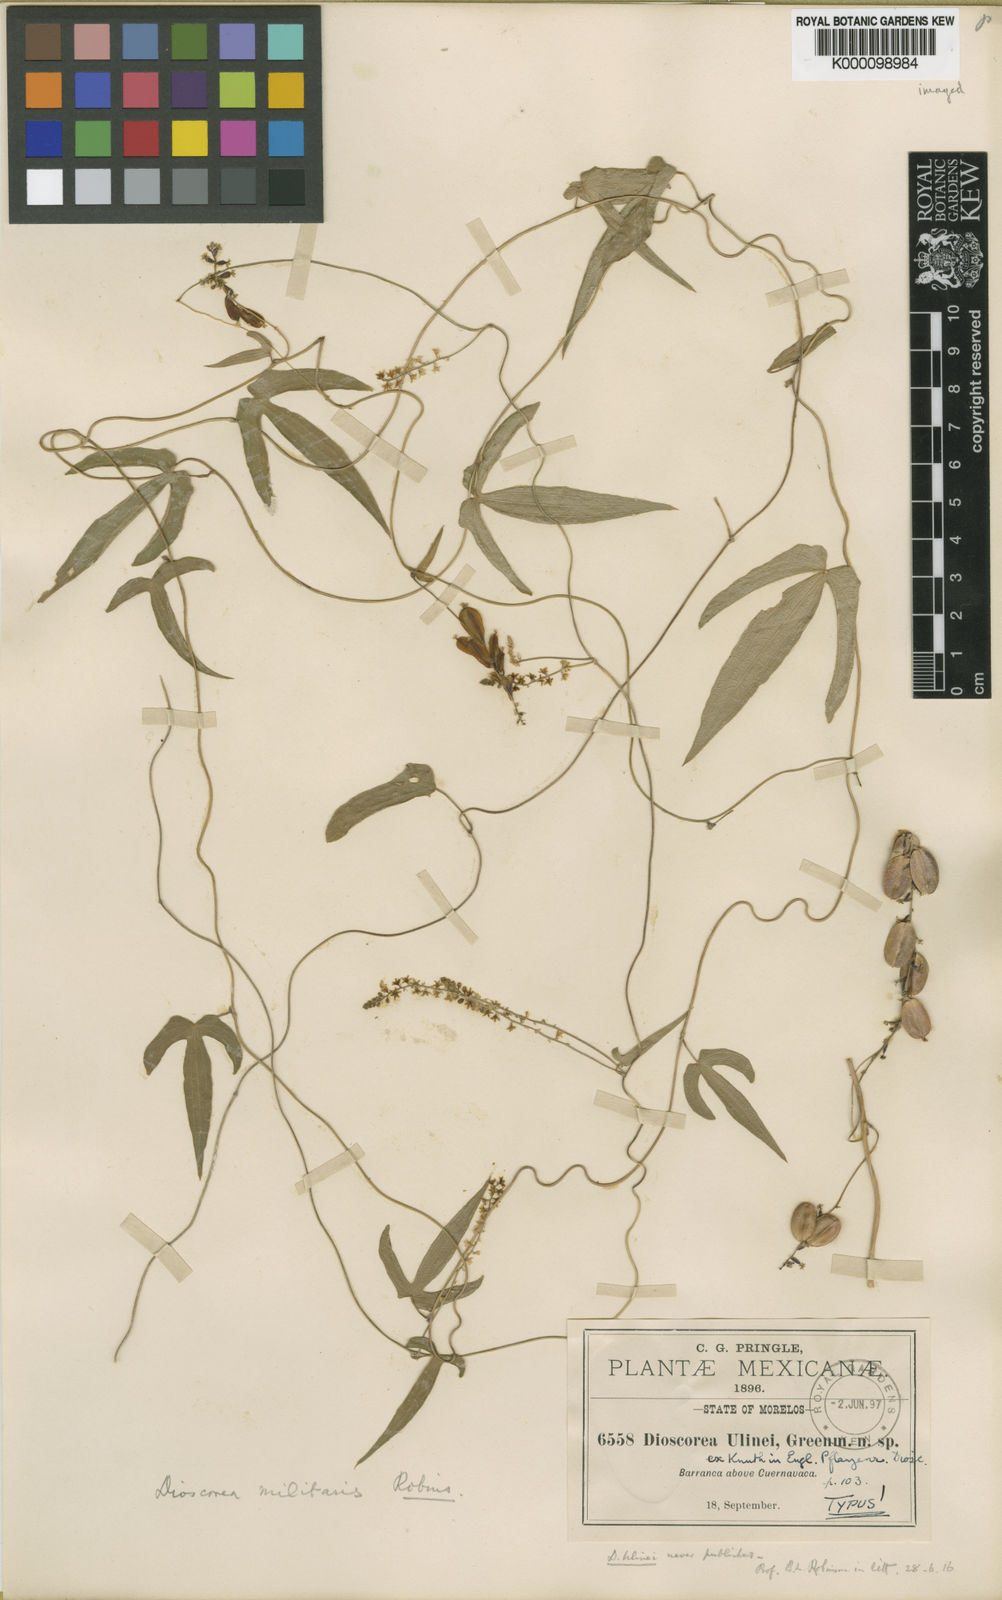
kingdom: Plantae
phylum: Tracheophyta
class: Liliopsida
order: Dioscoreales
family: Dioscoreaceae
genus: Dioscorea
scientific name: Dioscorea ulinei
